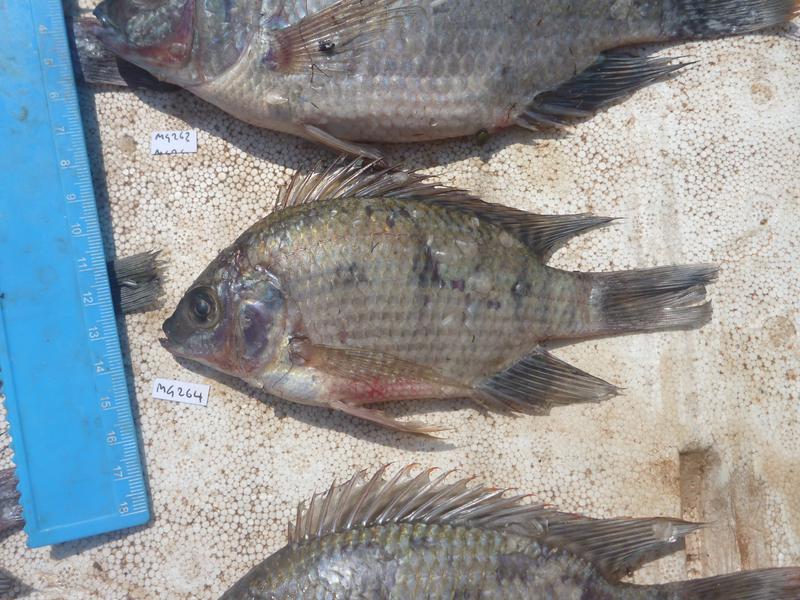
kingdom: Animalia
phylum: Chordata
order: Perciformes
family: Cichlidae
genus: Oreochromis
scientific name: Oreochromis upembae
